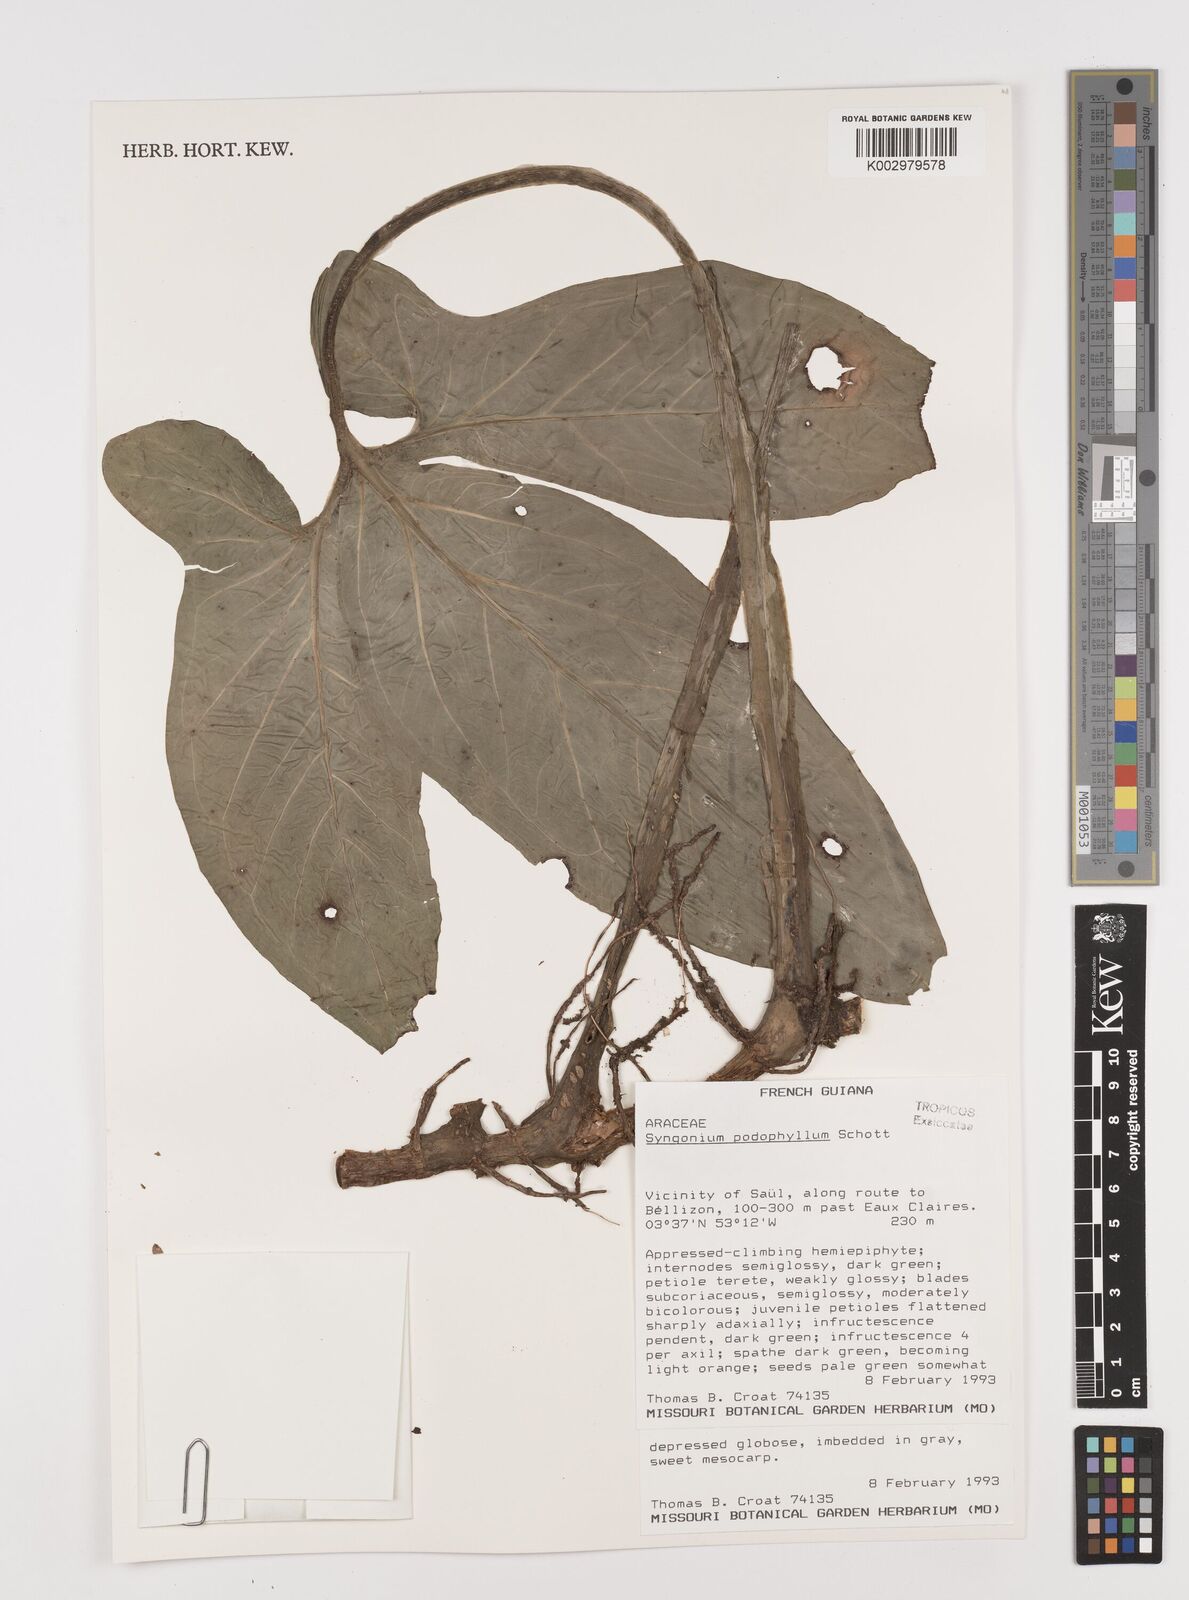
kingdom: Plantae
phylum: Tracheophyta
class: Liliopsida
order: Alismatales
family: Araceae
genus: Syngonium
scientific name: Syngonium podophyllum
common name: American evergreen
